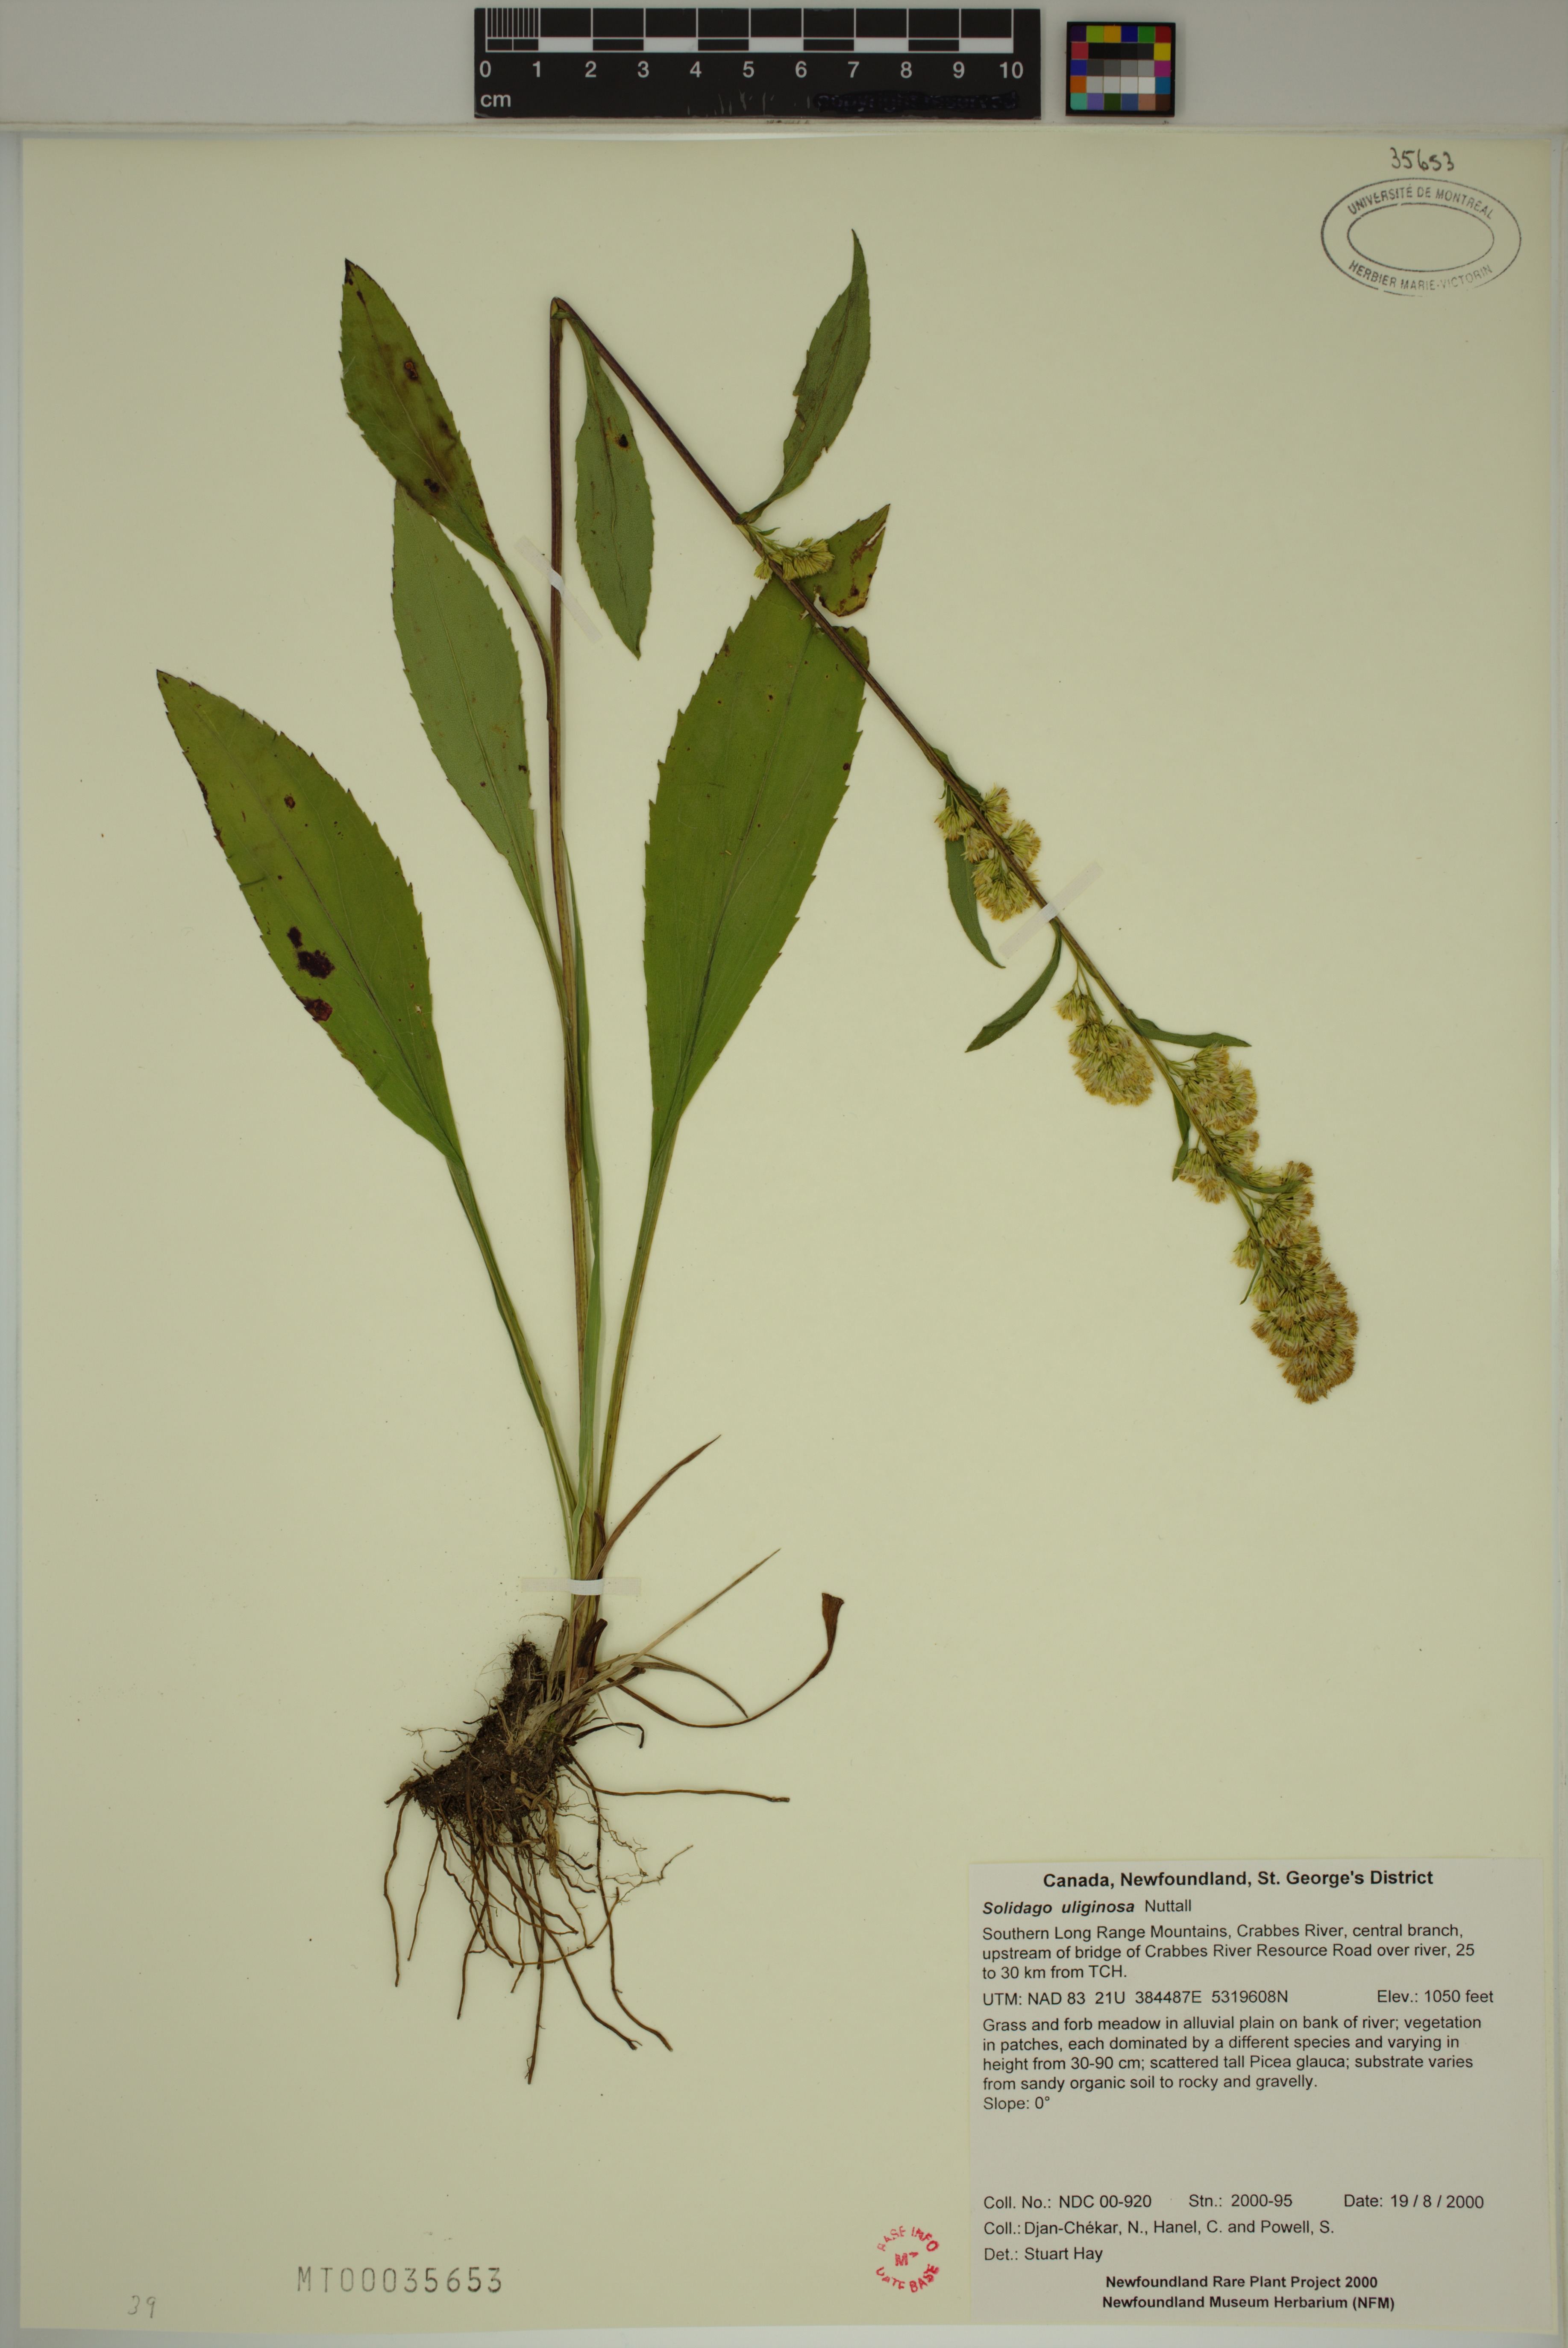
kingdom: Plantae
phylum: Tracheophyta
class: Magnoliopsida
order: Asterales
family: Asteraceae
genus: Solidago
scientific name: Solidago uliginosa
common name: Bog goldenrod
